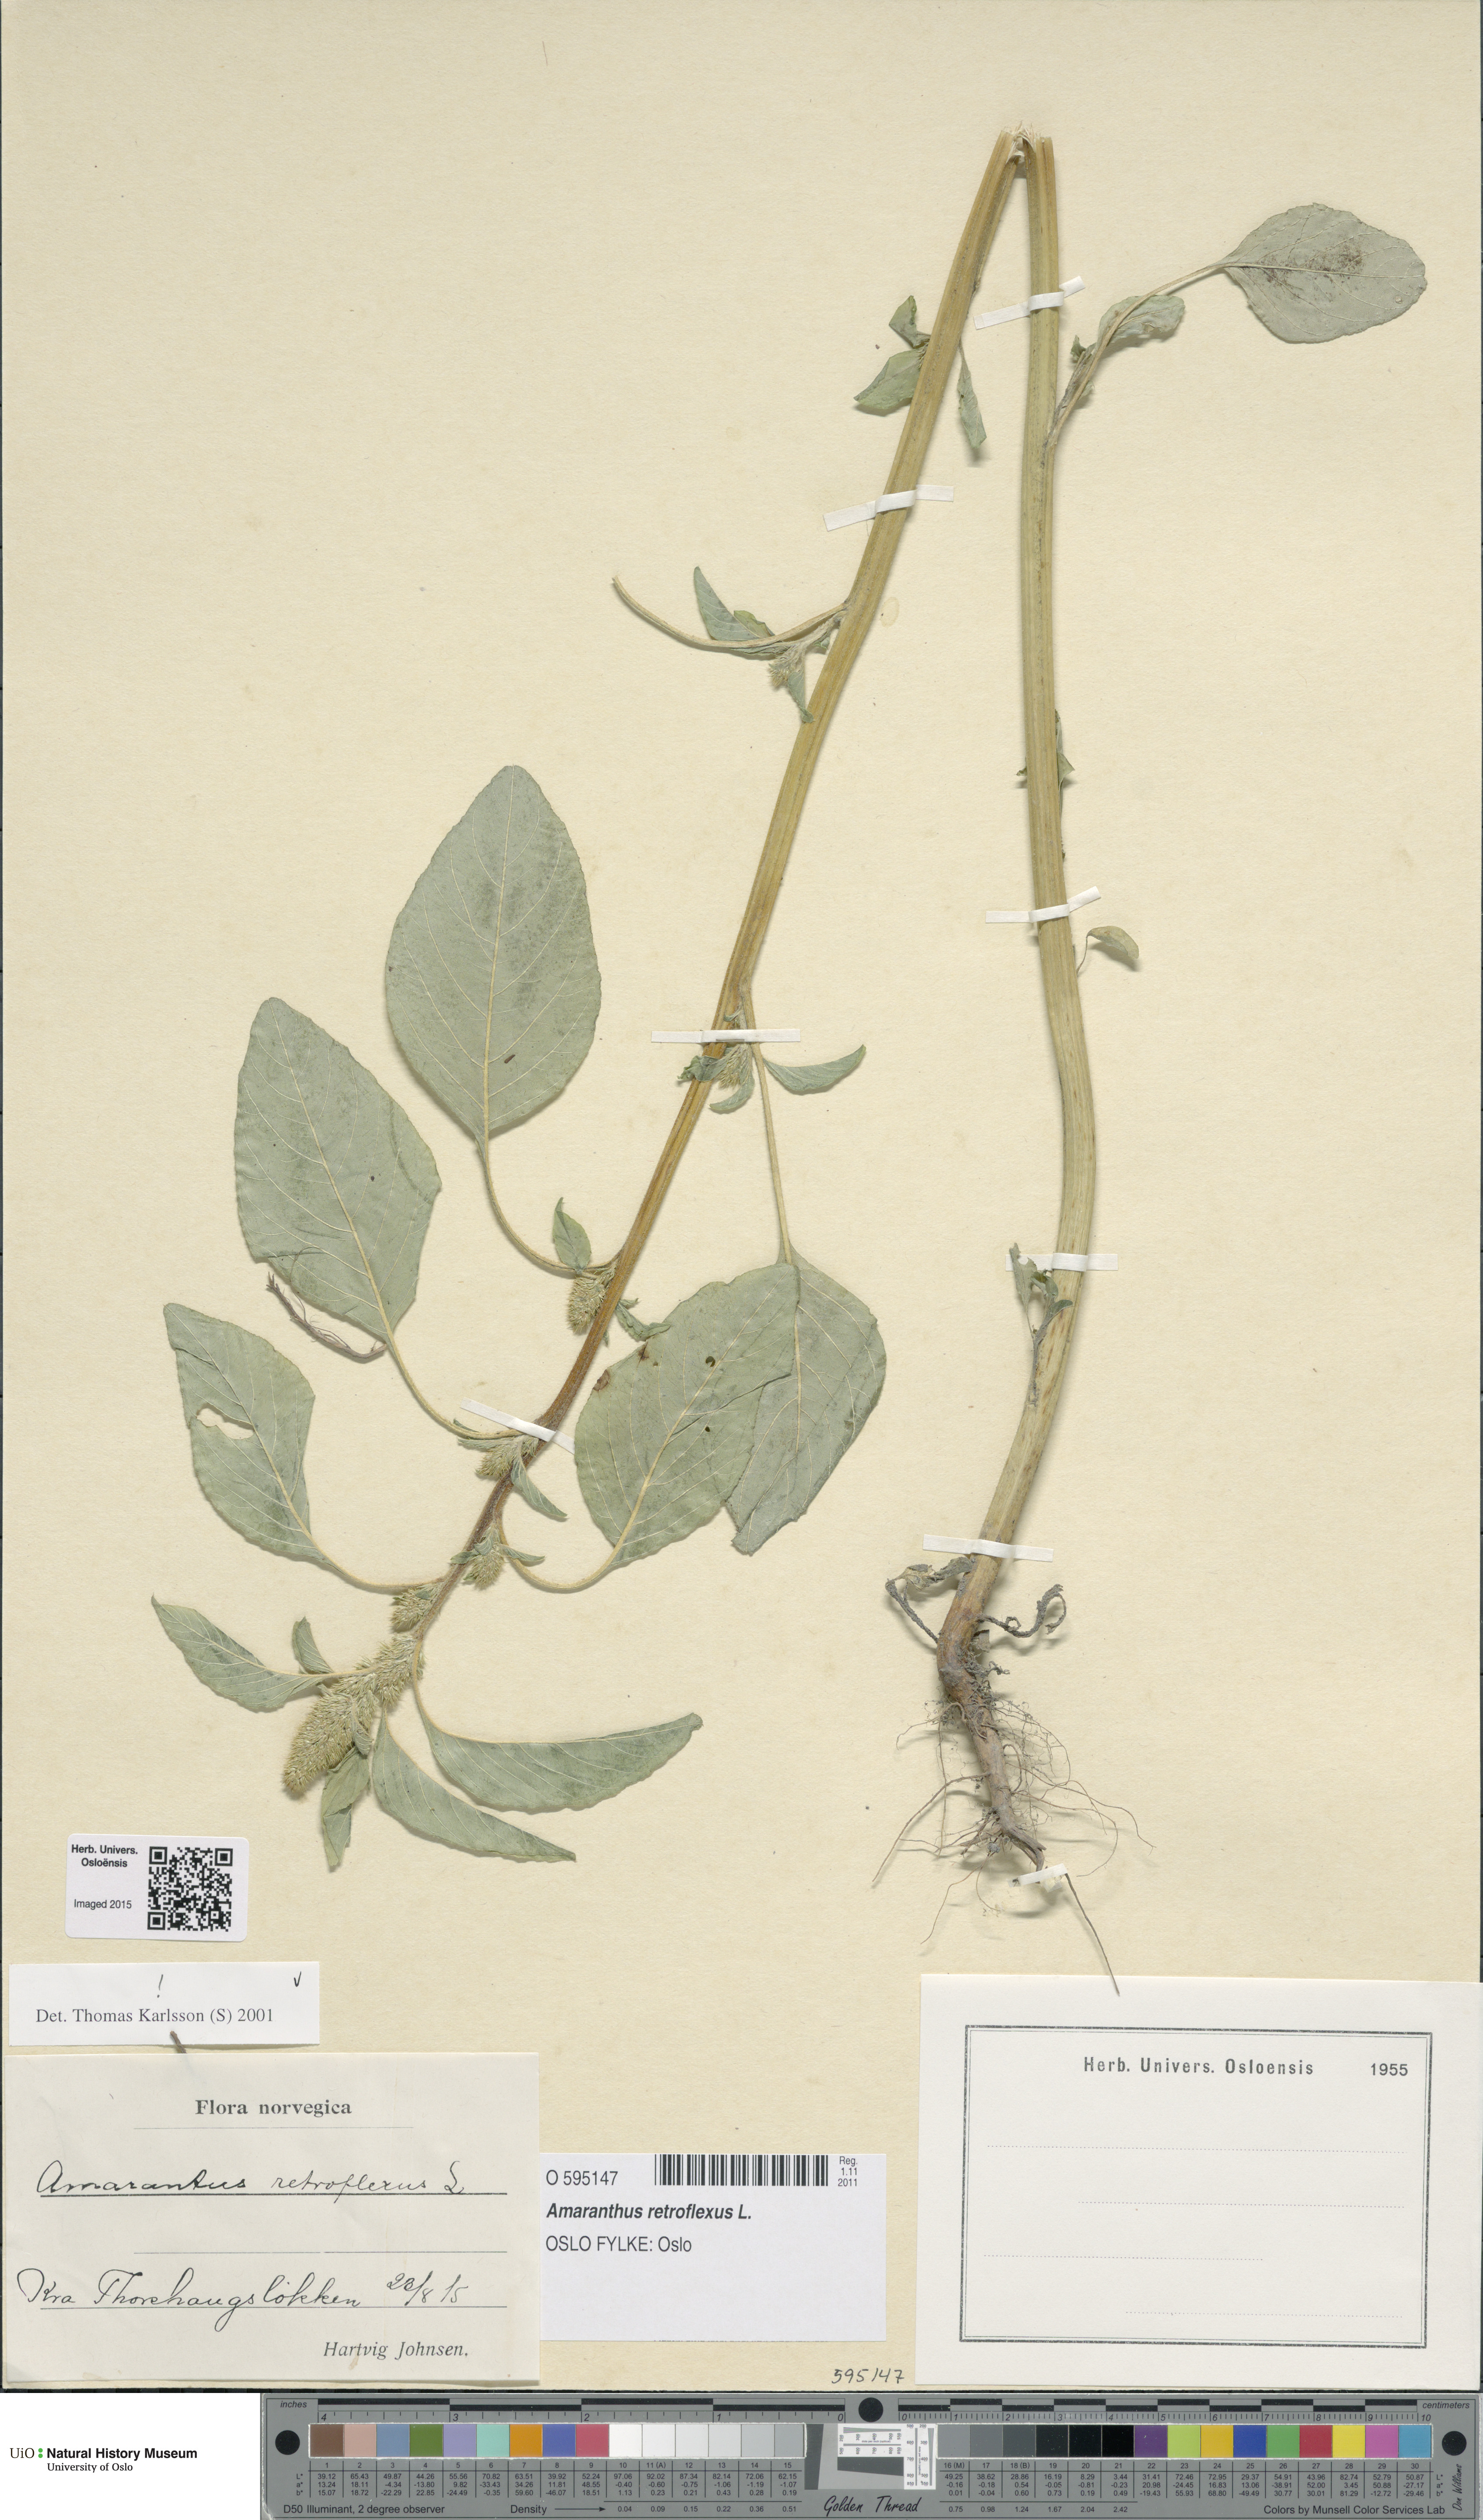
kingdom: Plantae
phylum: Tracheophyta
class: Magnoliopsida
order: Caryophyllales
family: Amaranthaceae
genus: Amaranthus
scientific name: Amaranthus retroflexus
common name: Redroot amaranth
